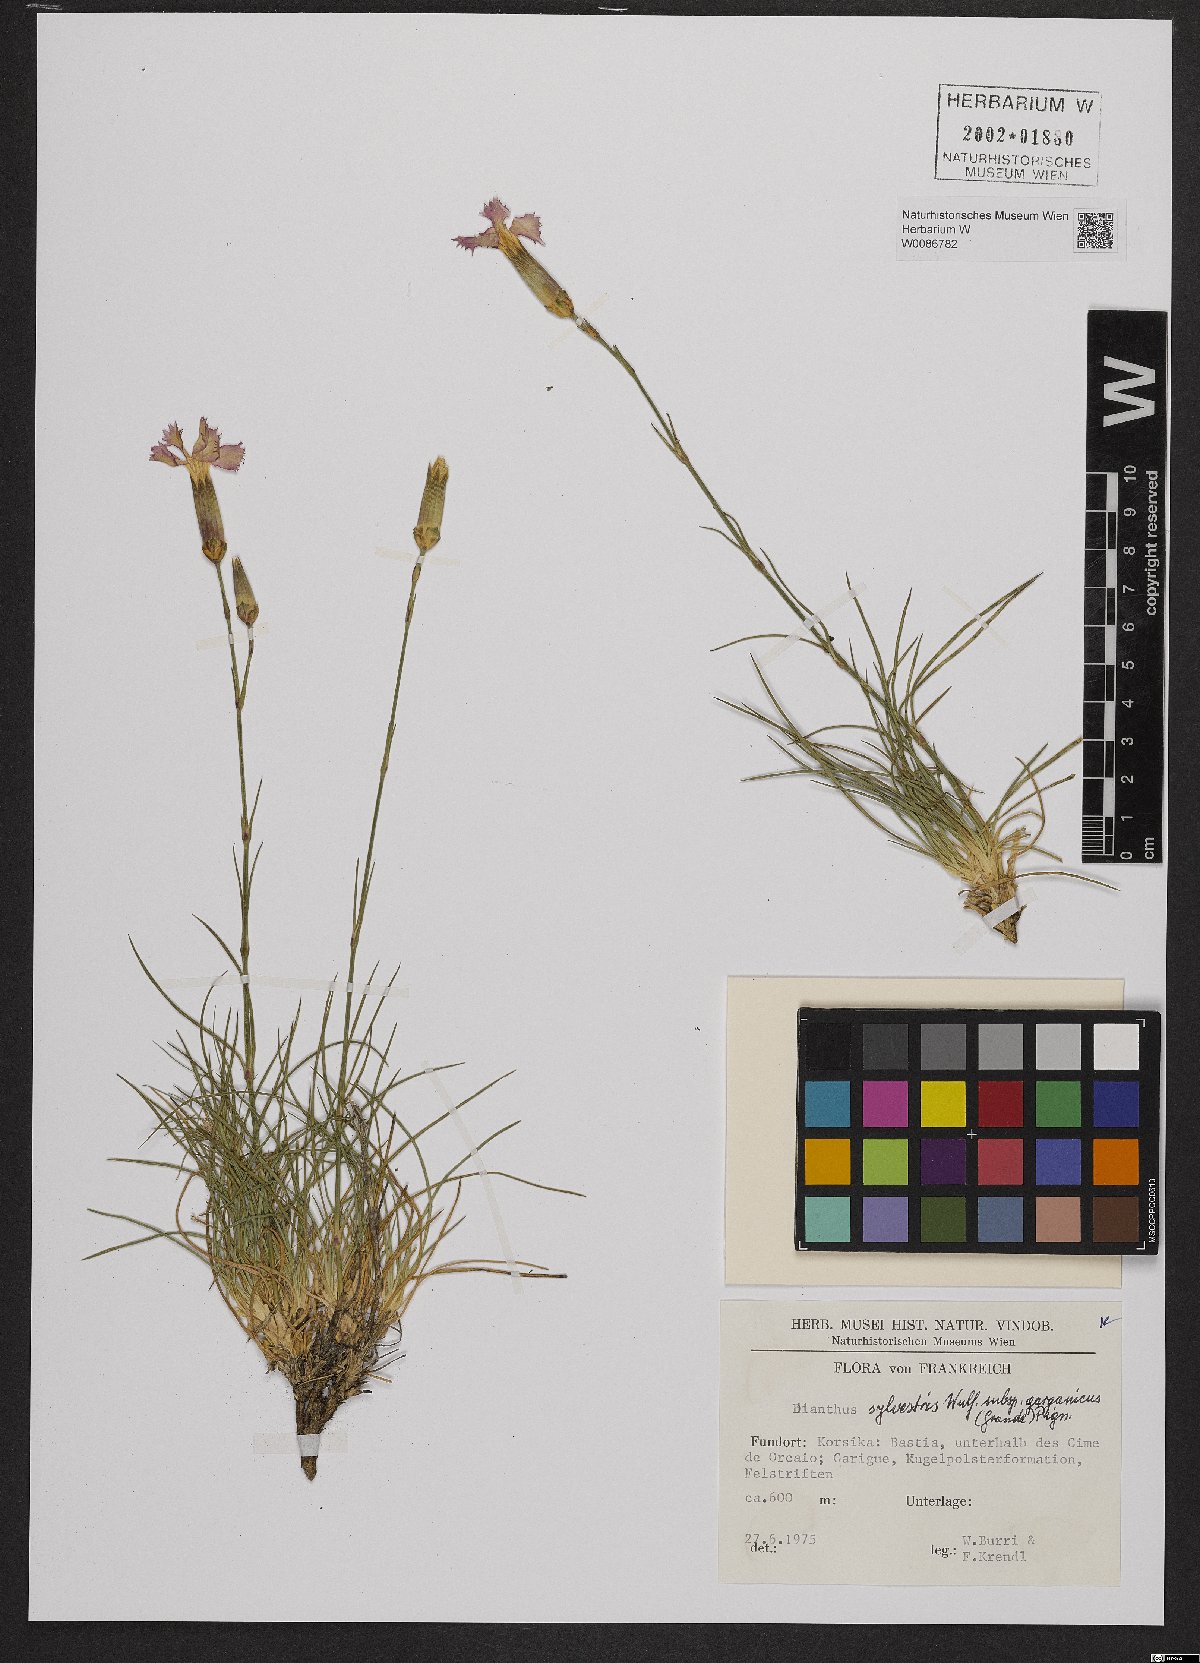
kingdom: Plantae
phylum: Tracheophyta
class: Magnoliopsida
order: Caryophyllales
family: Caryophyllaceae
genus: Dianthus
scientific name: Dianthus tarentinus
